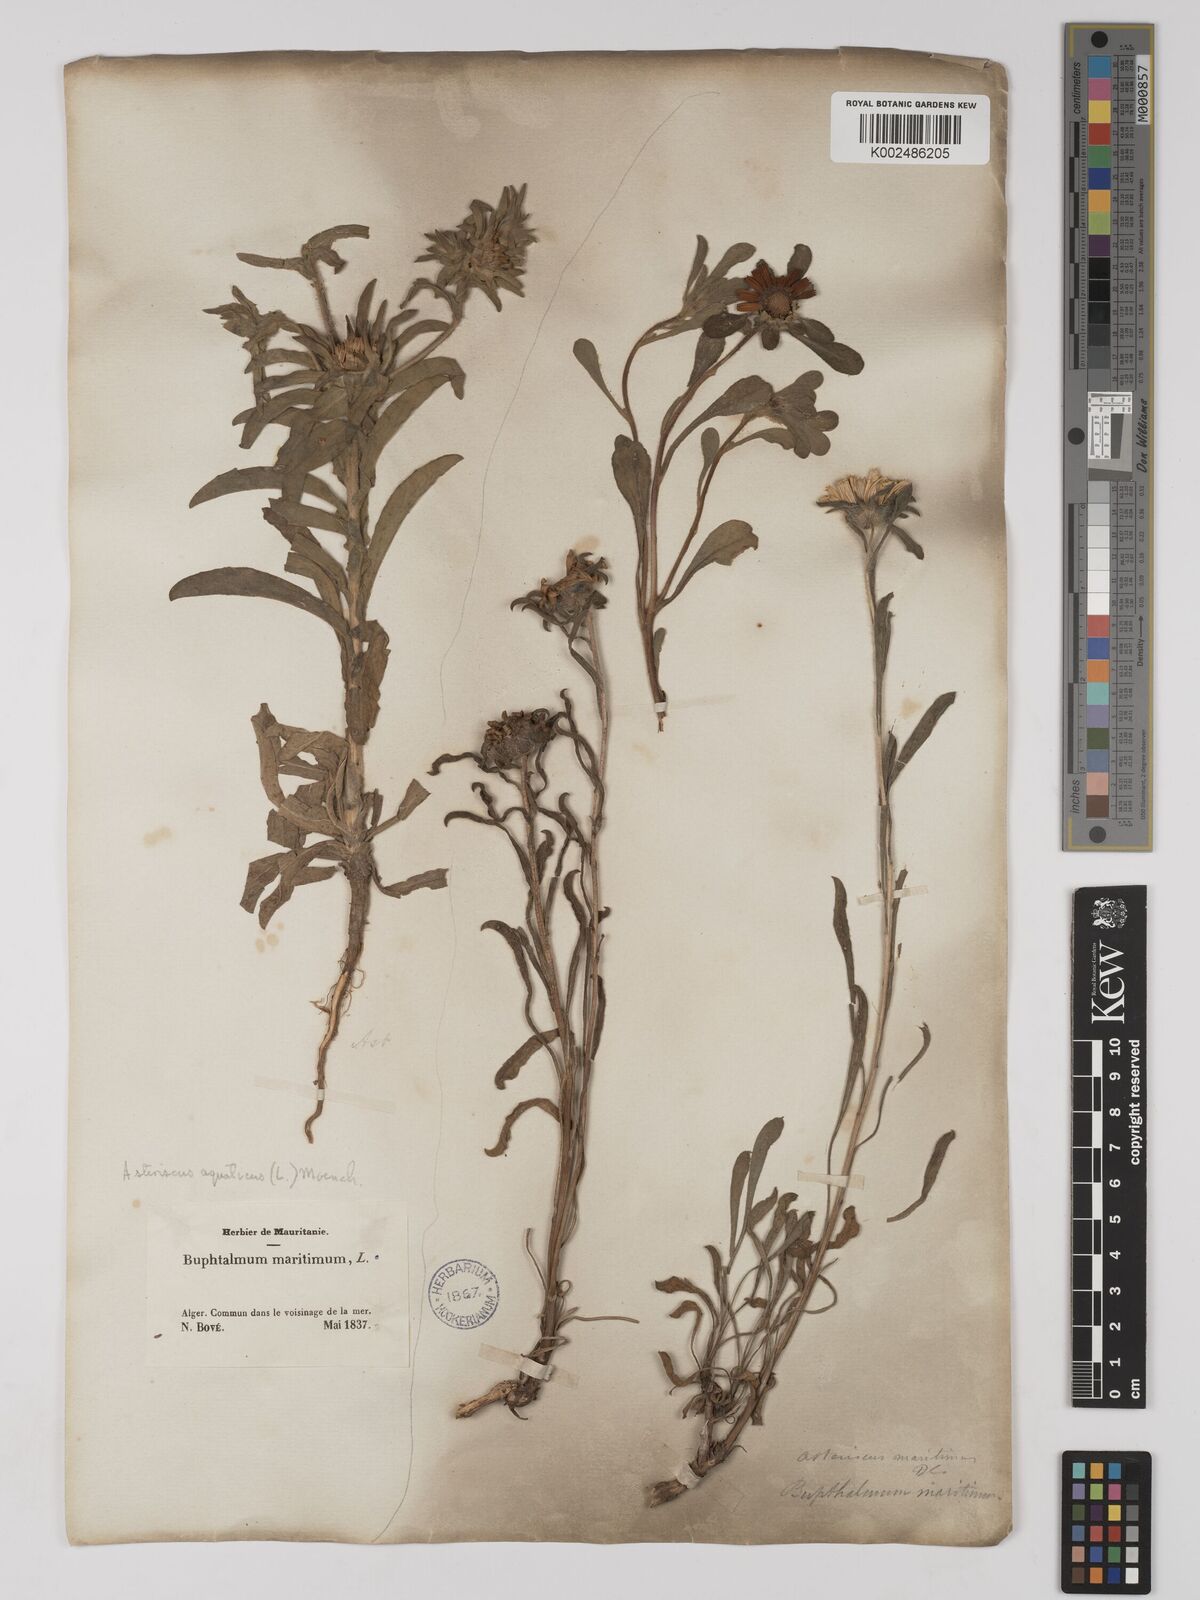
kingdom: Plantae
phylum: Tracheophyta
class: Magnoliopsida
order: Asterales
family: Asteraceae
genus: Pallenis
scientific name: Pallenis maritima
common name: Golden coin daisy
